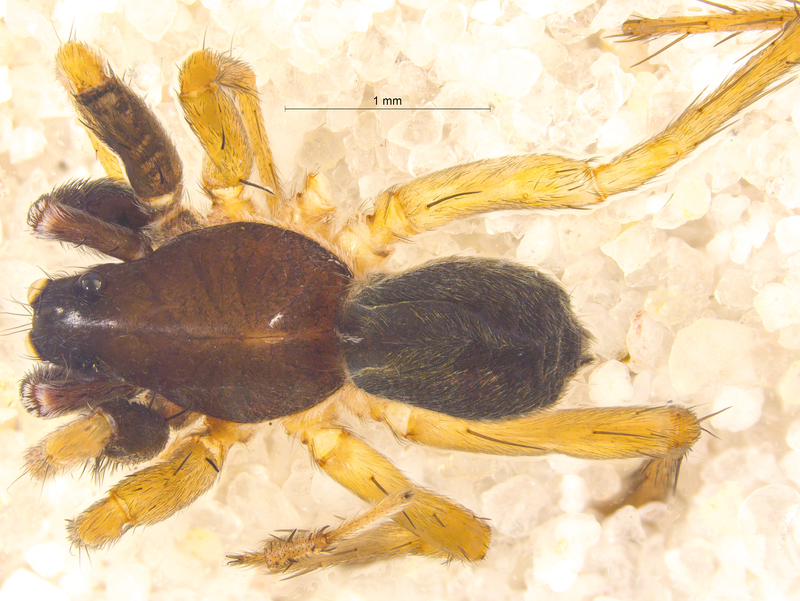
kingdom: Animalia
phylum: Arthropoda
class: Arachnida
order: Araneae
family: Lycosidae
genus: Aulonia
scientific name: Aulonia albimana
